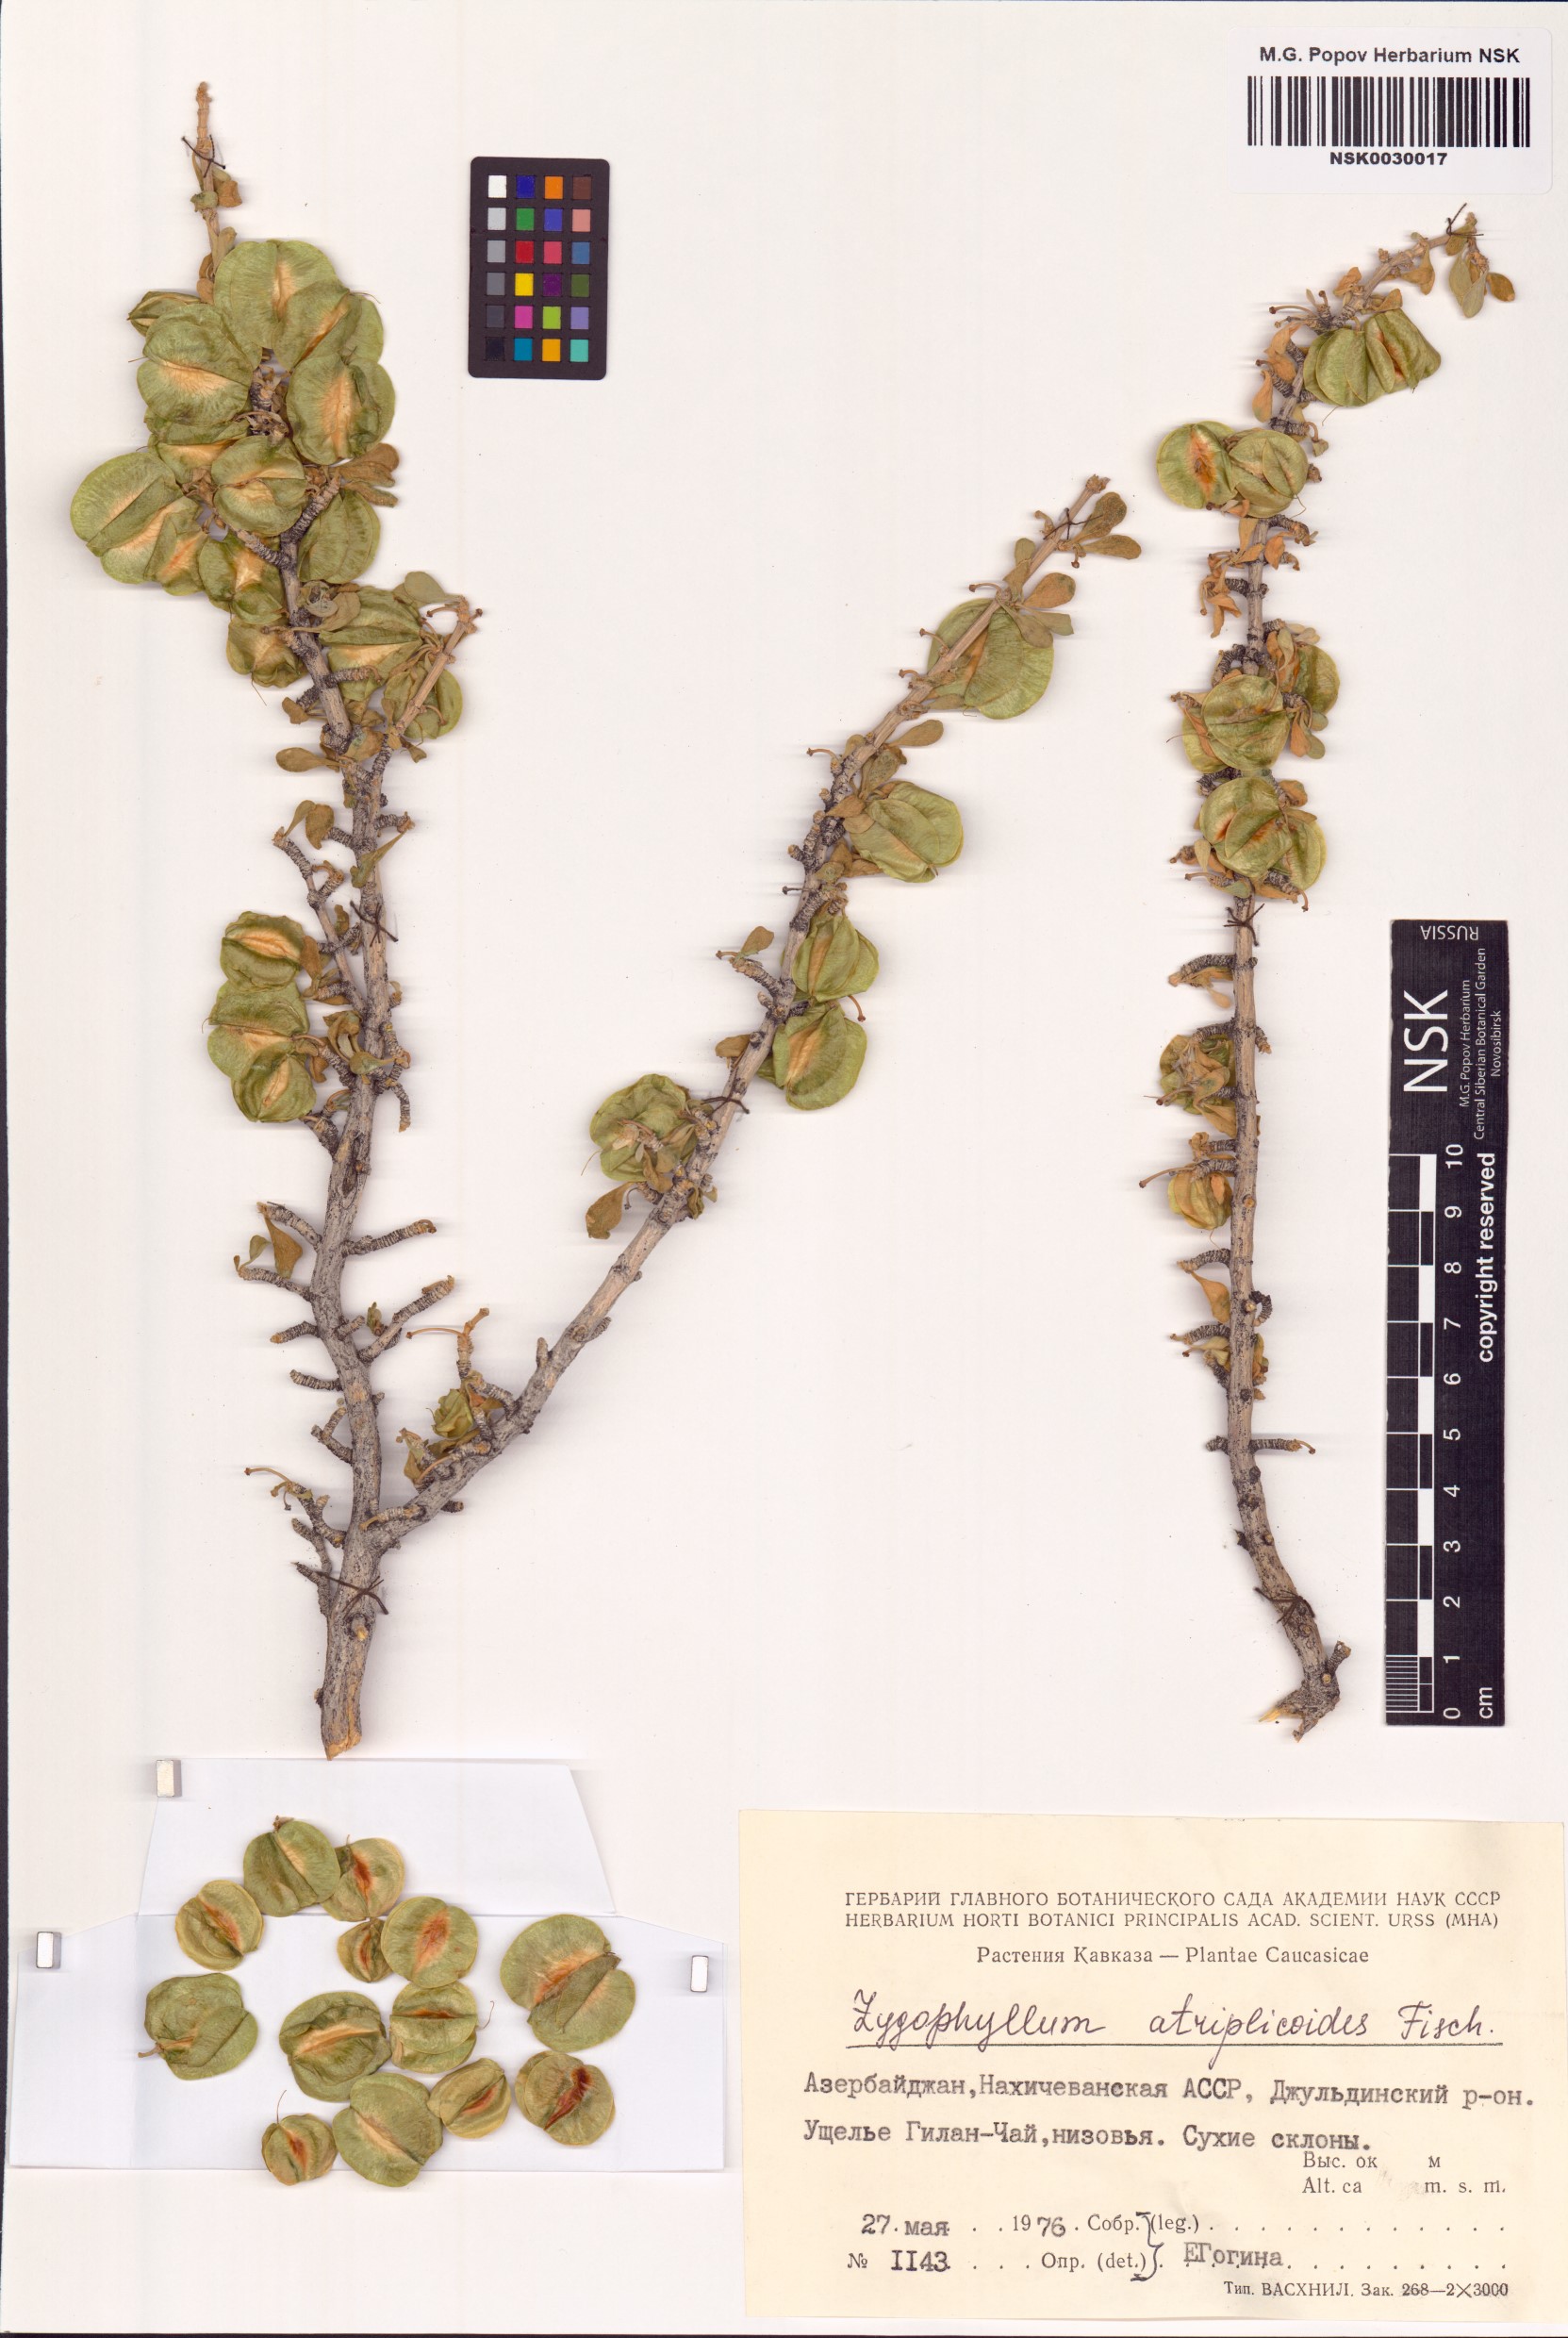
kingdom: Plantae
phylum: Tracheophyta
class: Magnoliopsida
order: Zygophyllales
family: Zygophyllaceae
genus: Zygophyllum
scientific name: Zygophyllum atriplicoides
